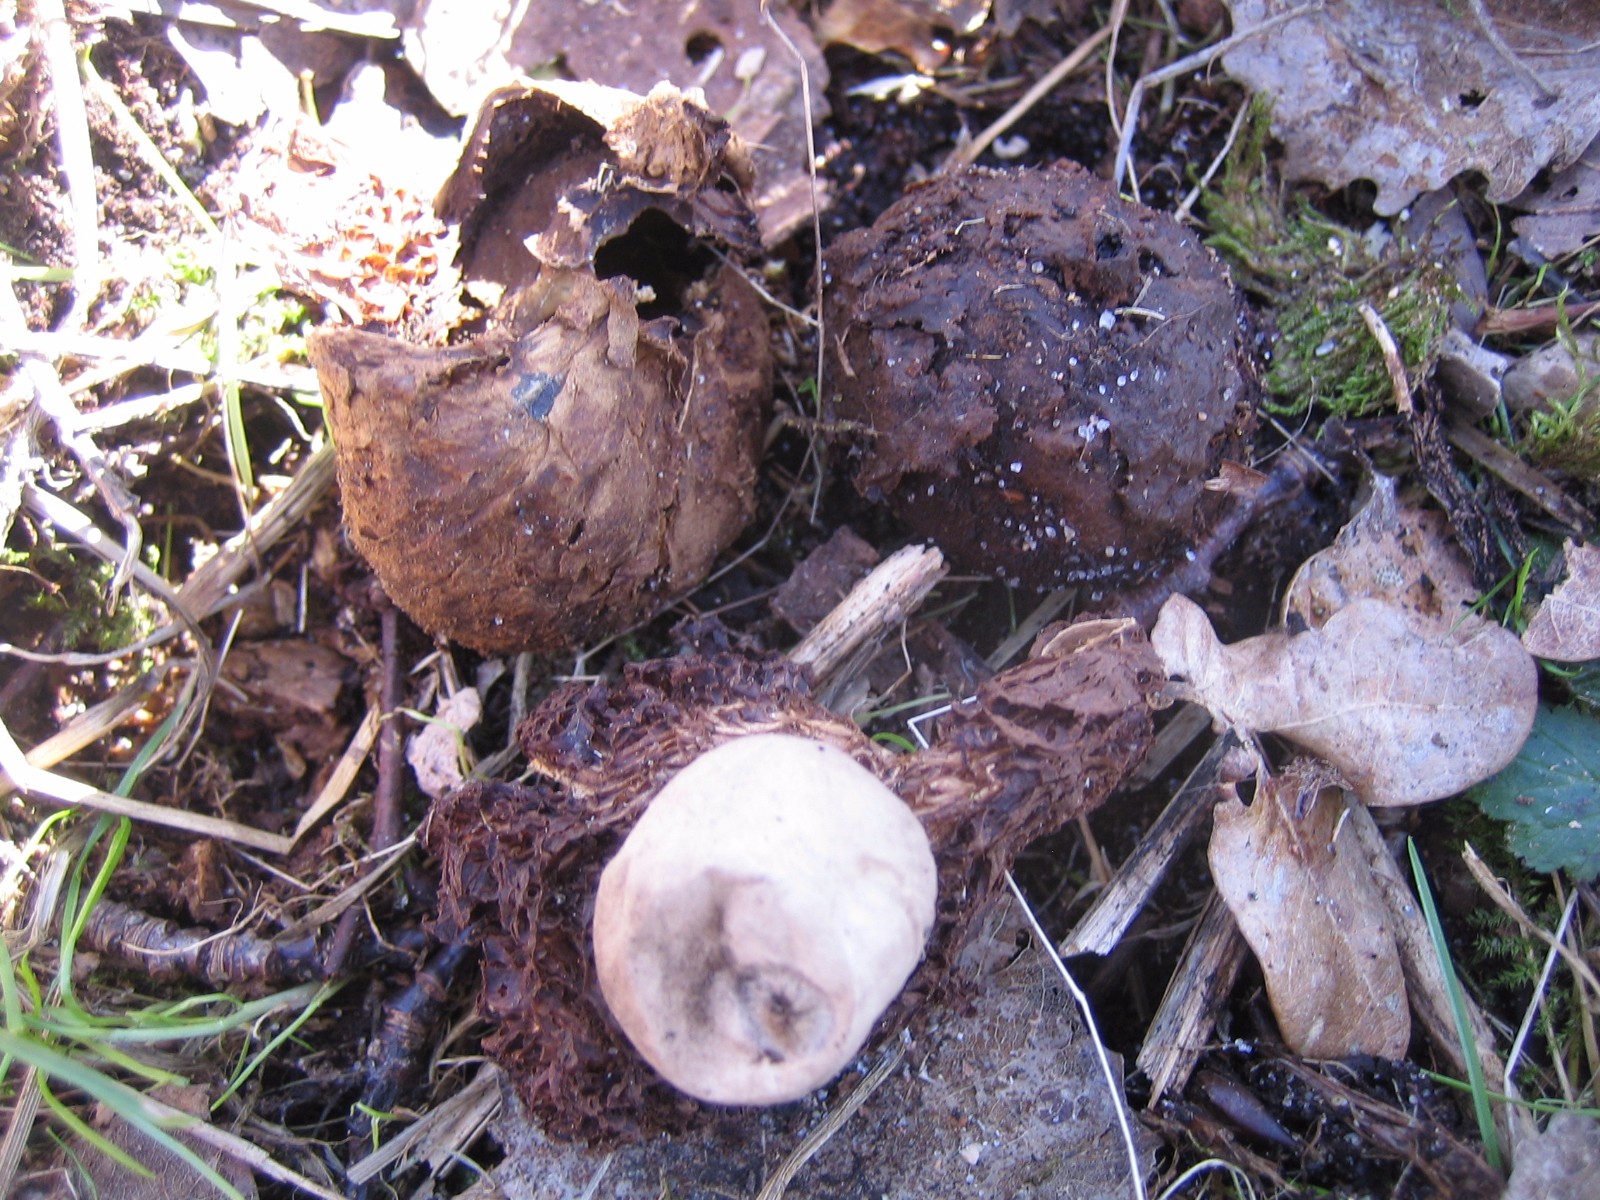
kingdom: Fungi
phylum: Basidiomycota
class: Agaricomycetes
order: Geastrales
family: Geastraceae
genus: Geastrum
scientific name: Geastrum michelianum
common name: kødet stjernebold
